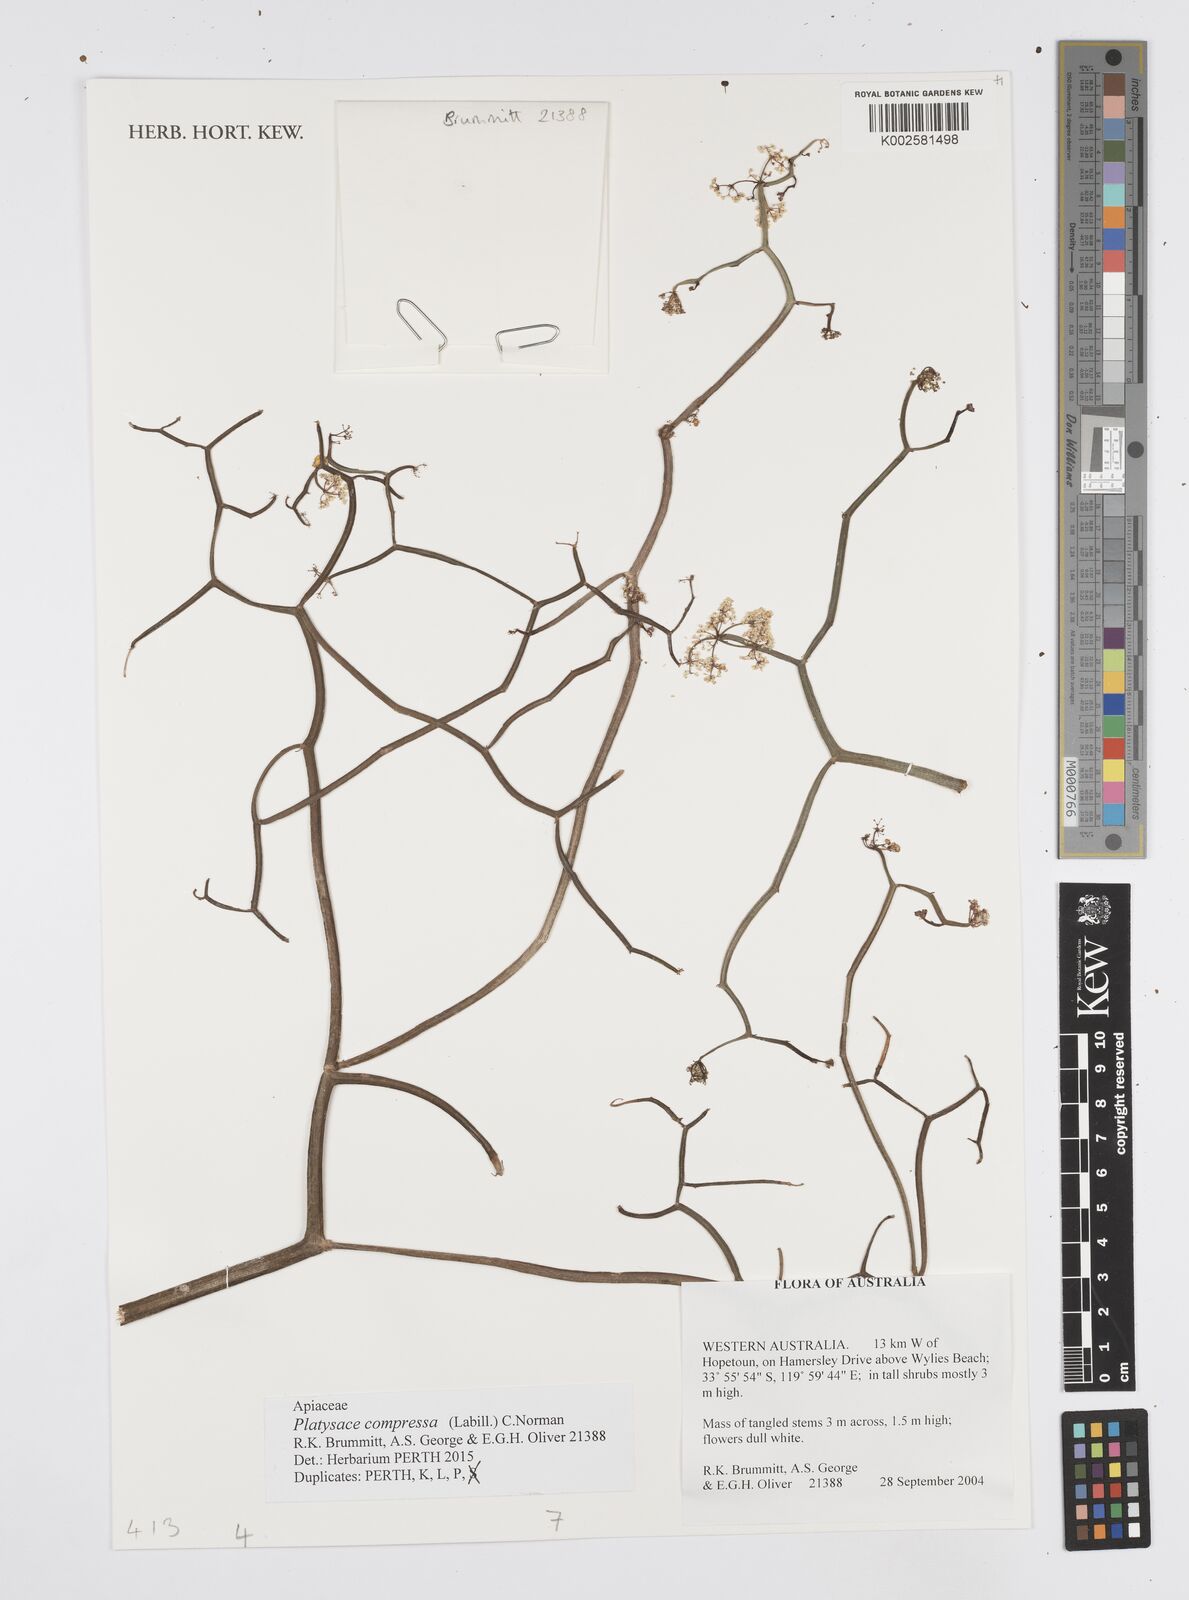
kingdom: Plantae
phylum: Tracheophyta
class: Magnoliopsida
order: Apiales
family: Apiaceae
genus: Centella
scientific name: Centella
